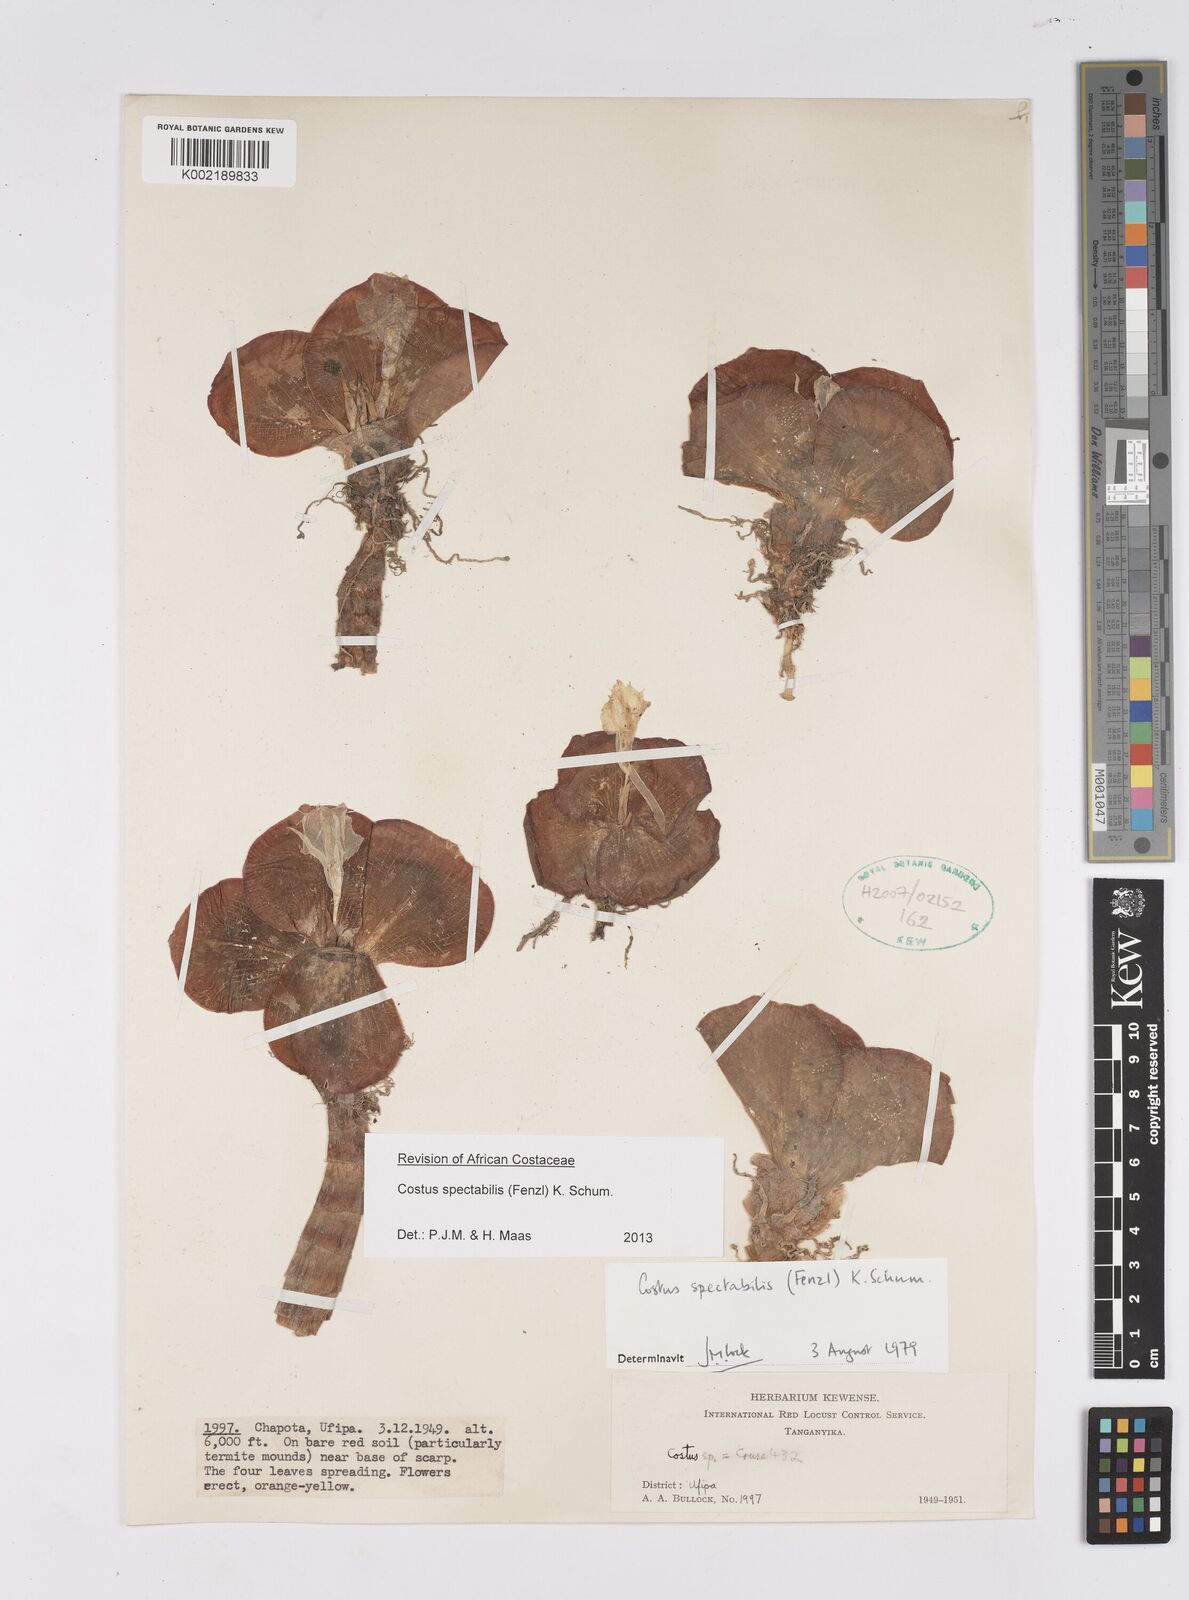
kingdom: Plantae
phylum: Tracheophyta
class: Liliopsida
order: Zingiberales
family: Costaceae
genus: Costus
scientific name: Costus spectabilis
